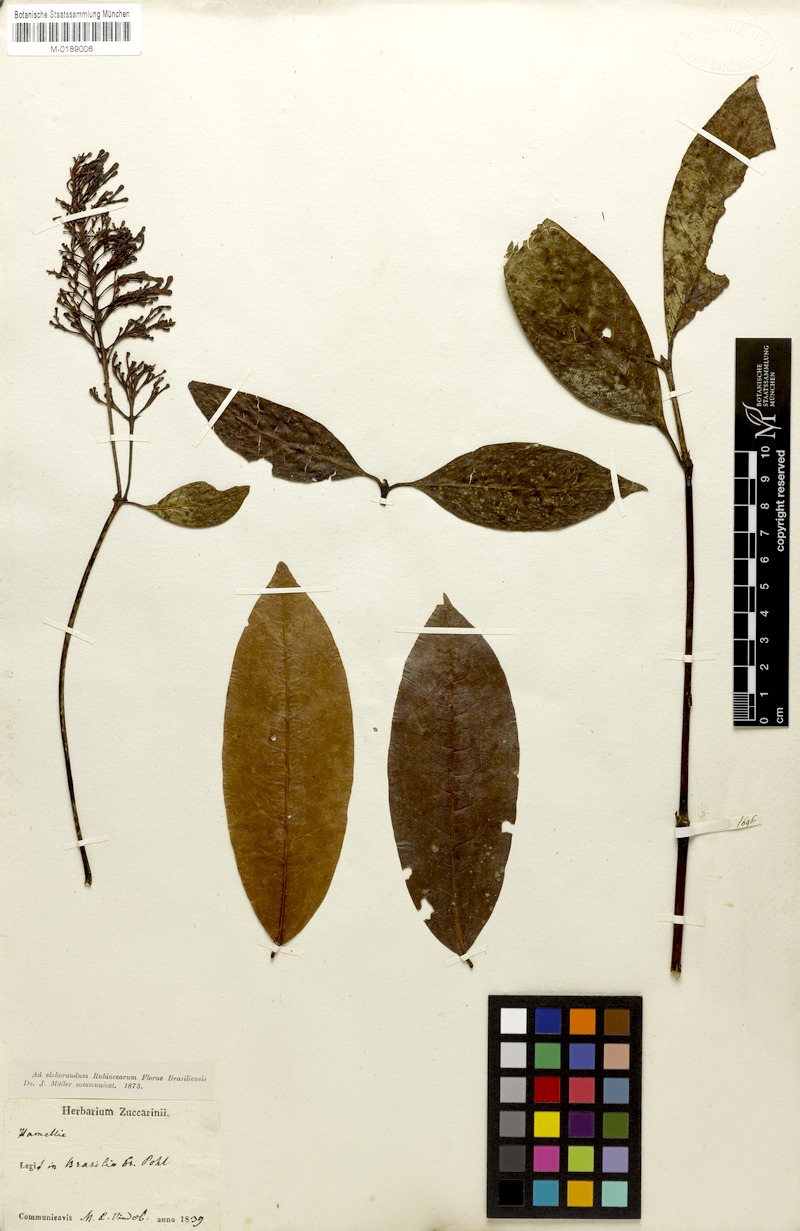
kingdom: Plantae
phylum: Tracheophyta
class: Magnoliopsida
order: Gentianales
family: Rubiaceae
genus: Palicourea
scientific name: Palicourea longipedunculata
